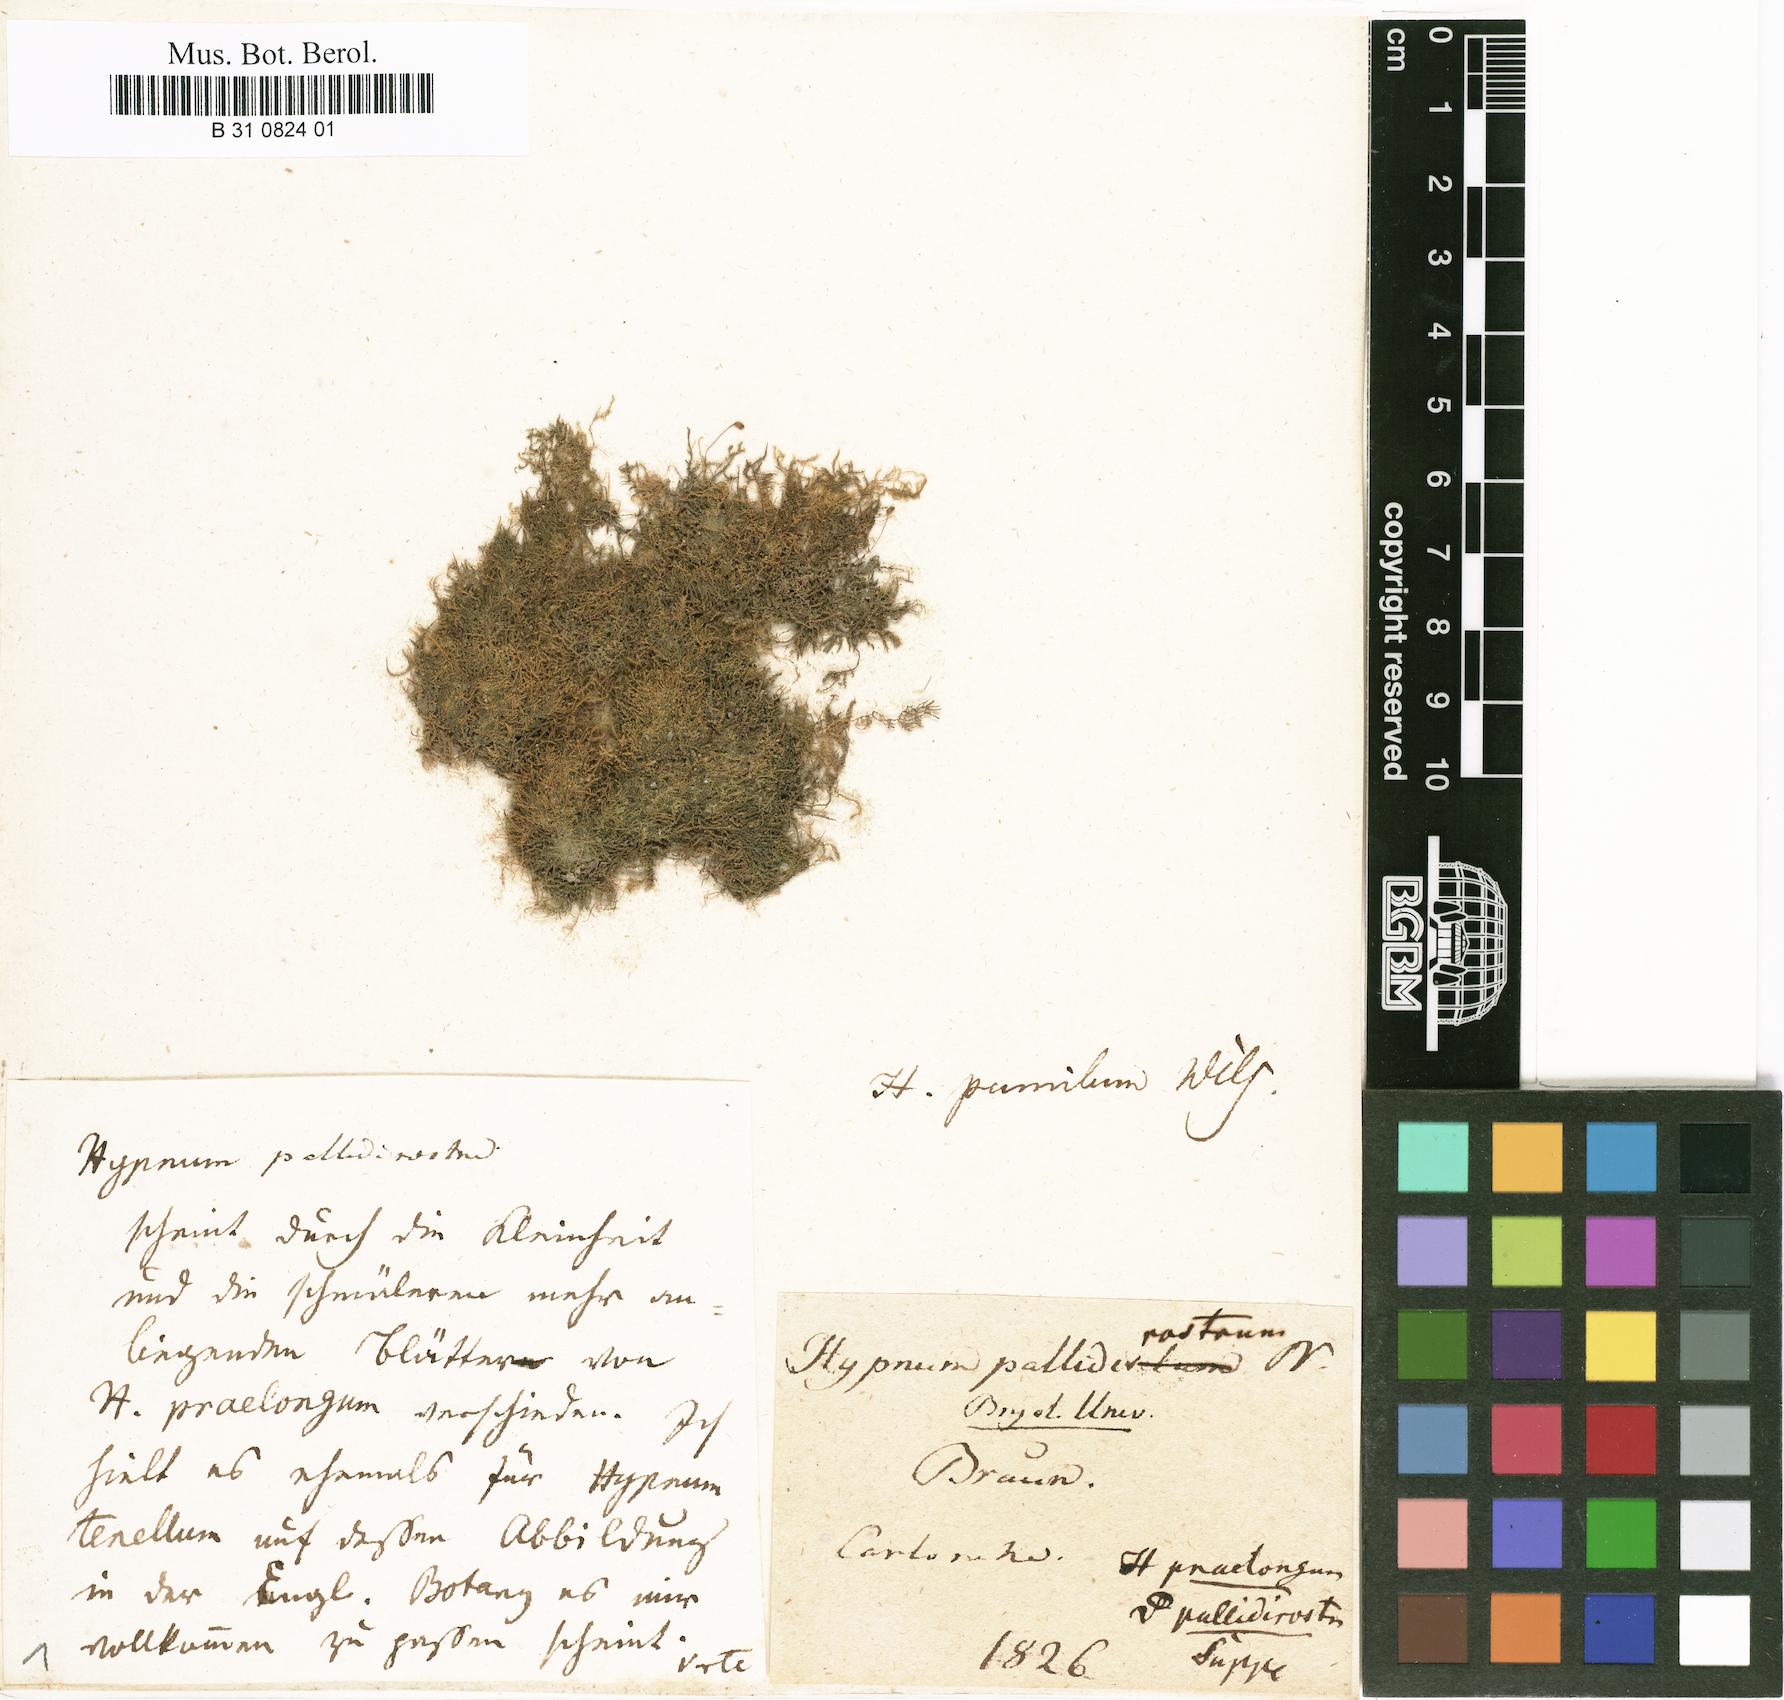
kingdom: Plantae
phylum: Bryophyta
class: Bryopsida
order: Hypnales
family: Brachytheciaceae
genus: Kindbergia
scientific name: Kindbergia praelonga
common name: Slender beaked moss
